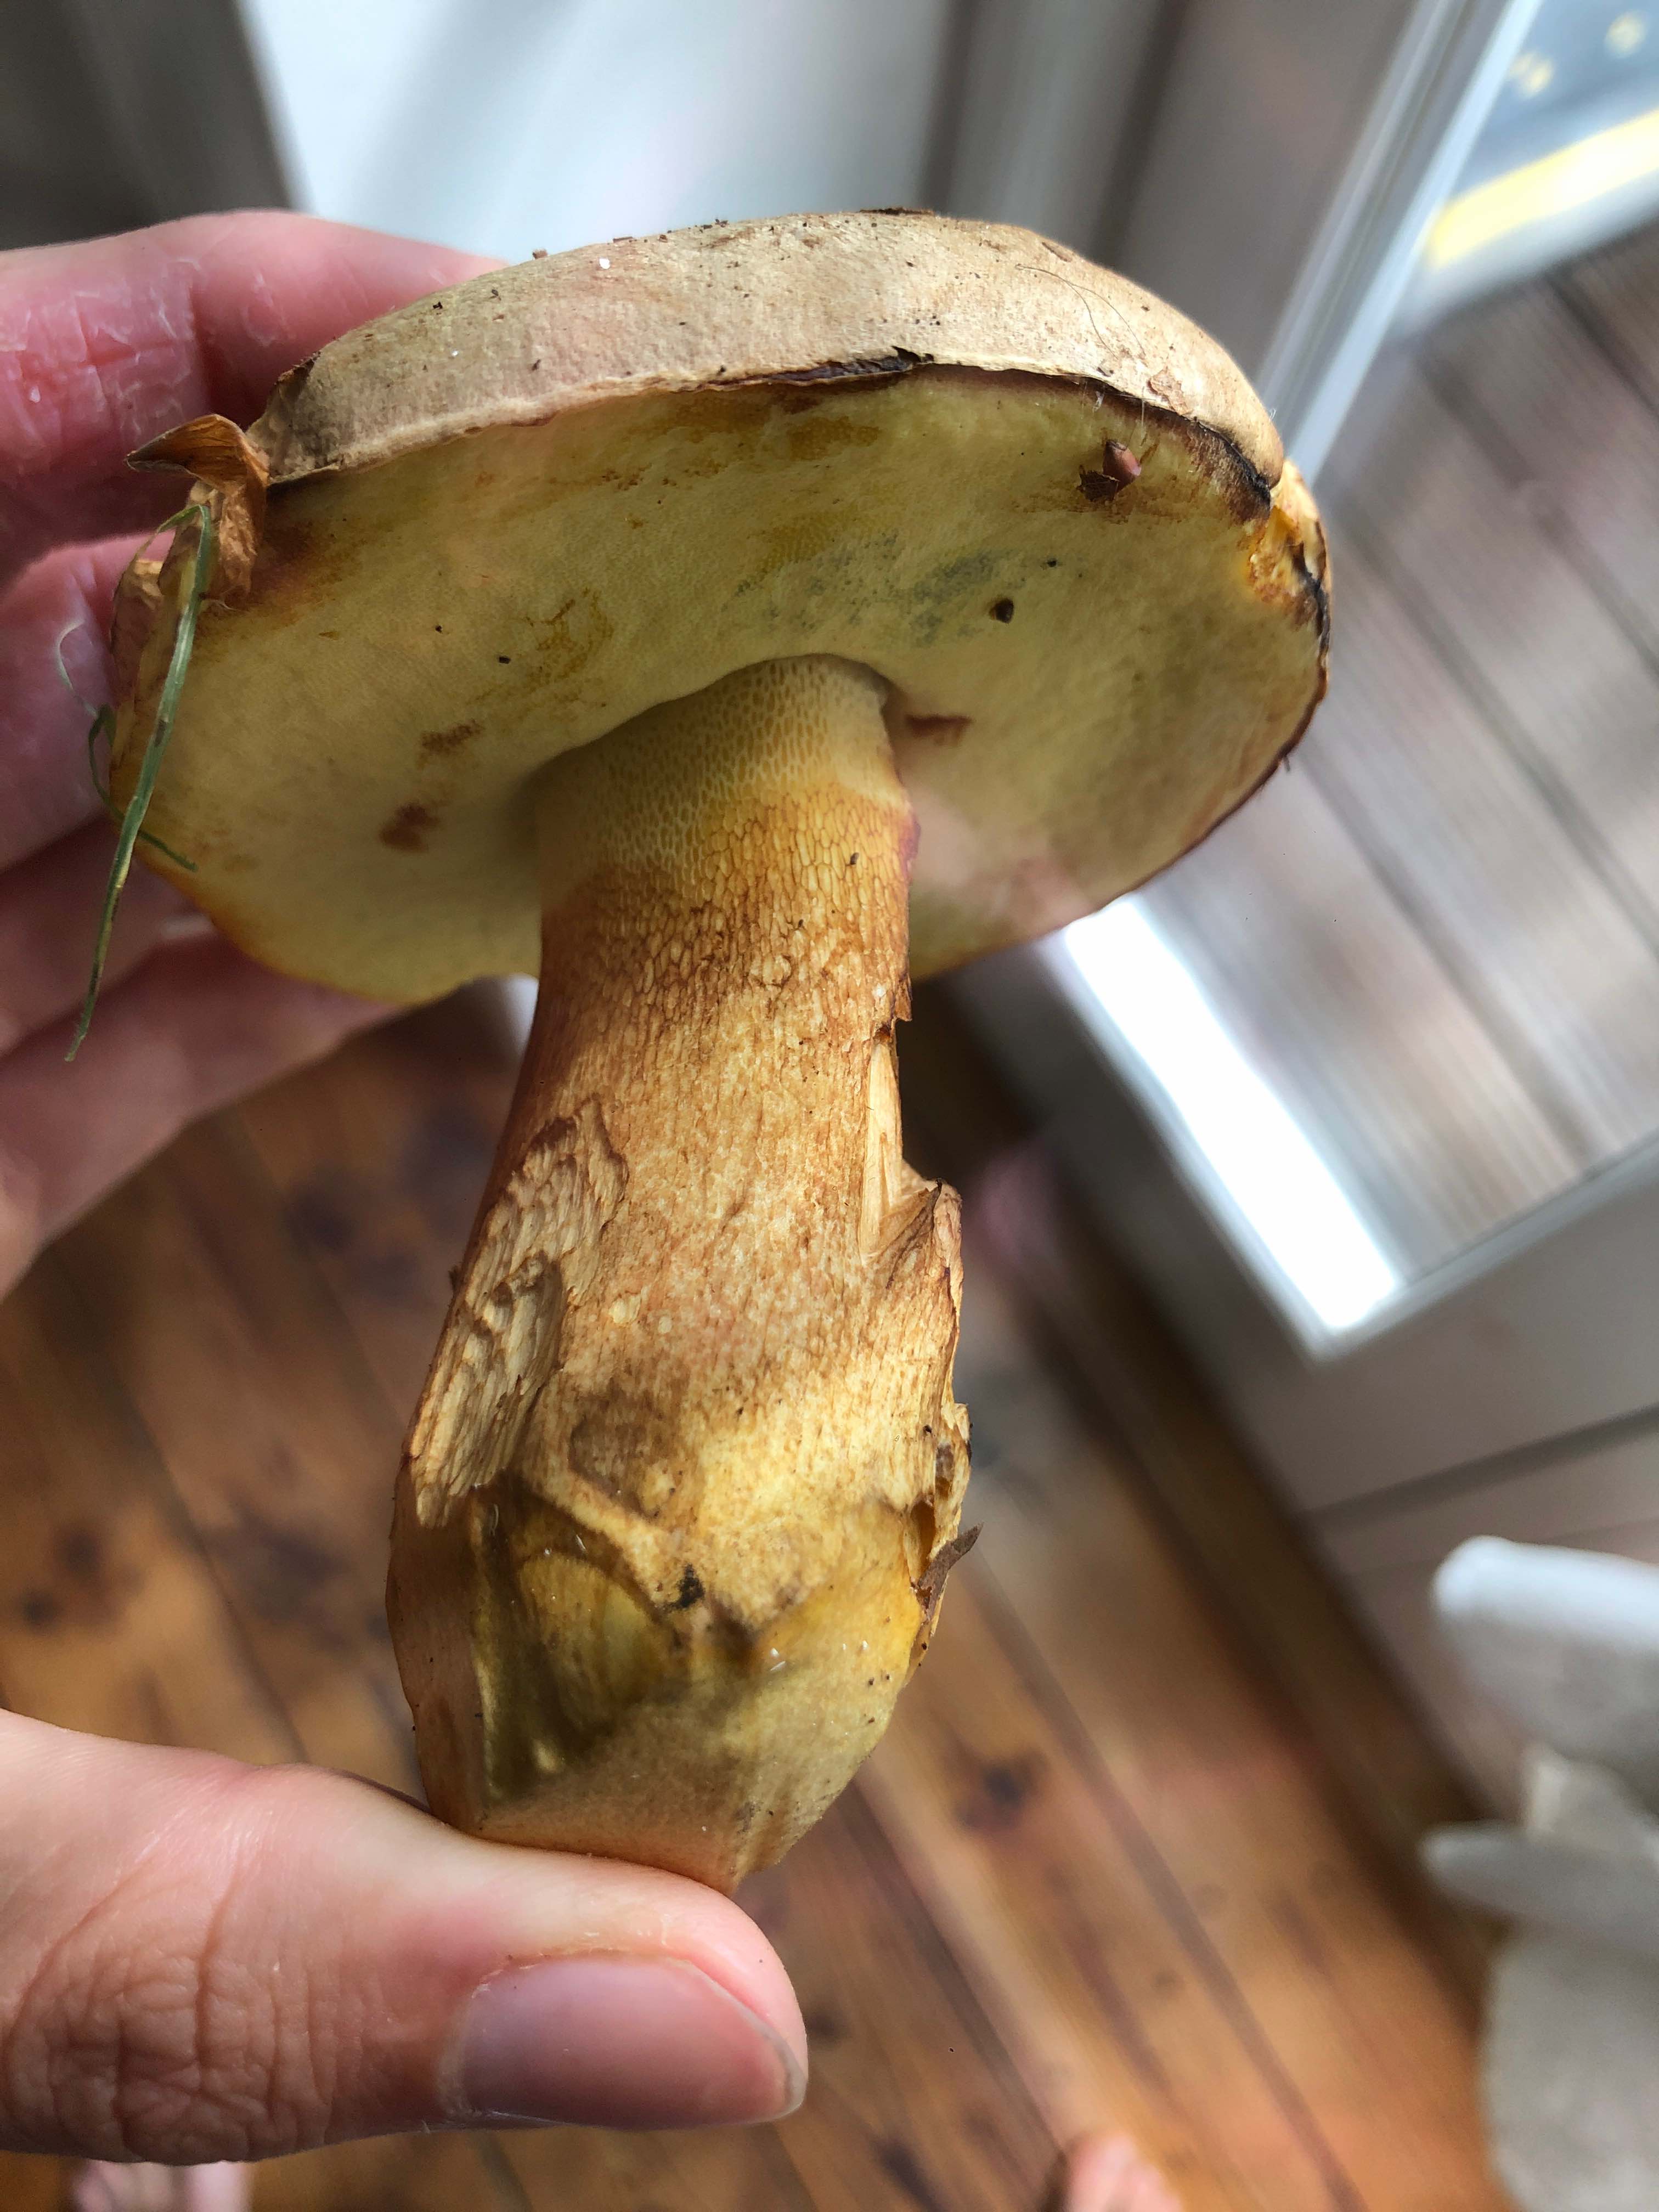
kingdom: Fungi
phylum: Basidiomycota
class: Agaricomycetes
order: Boletales
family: Boletaceae
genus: Butyriboletus
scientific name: Butyriboletus appendiculatus
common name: tenstokket rørhat
